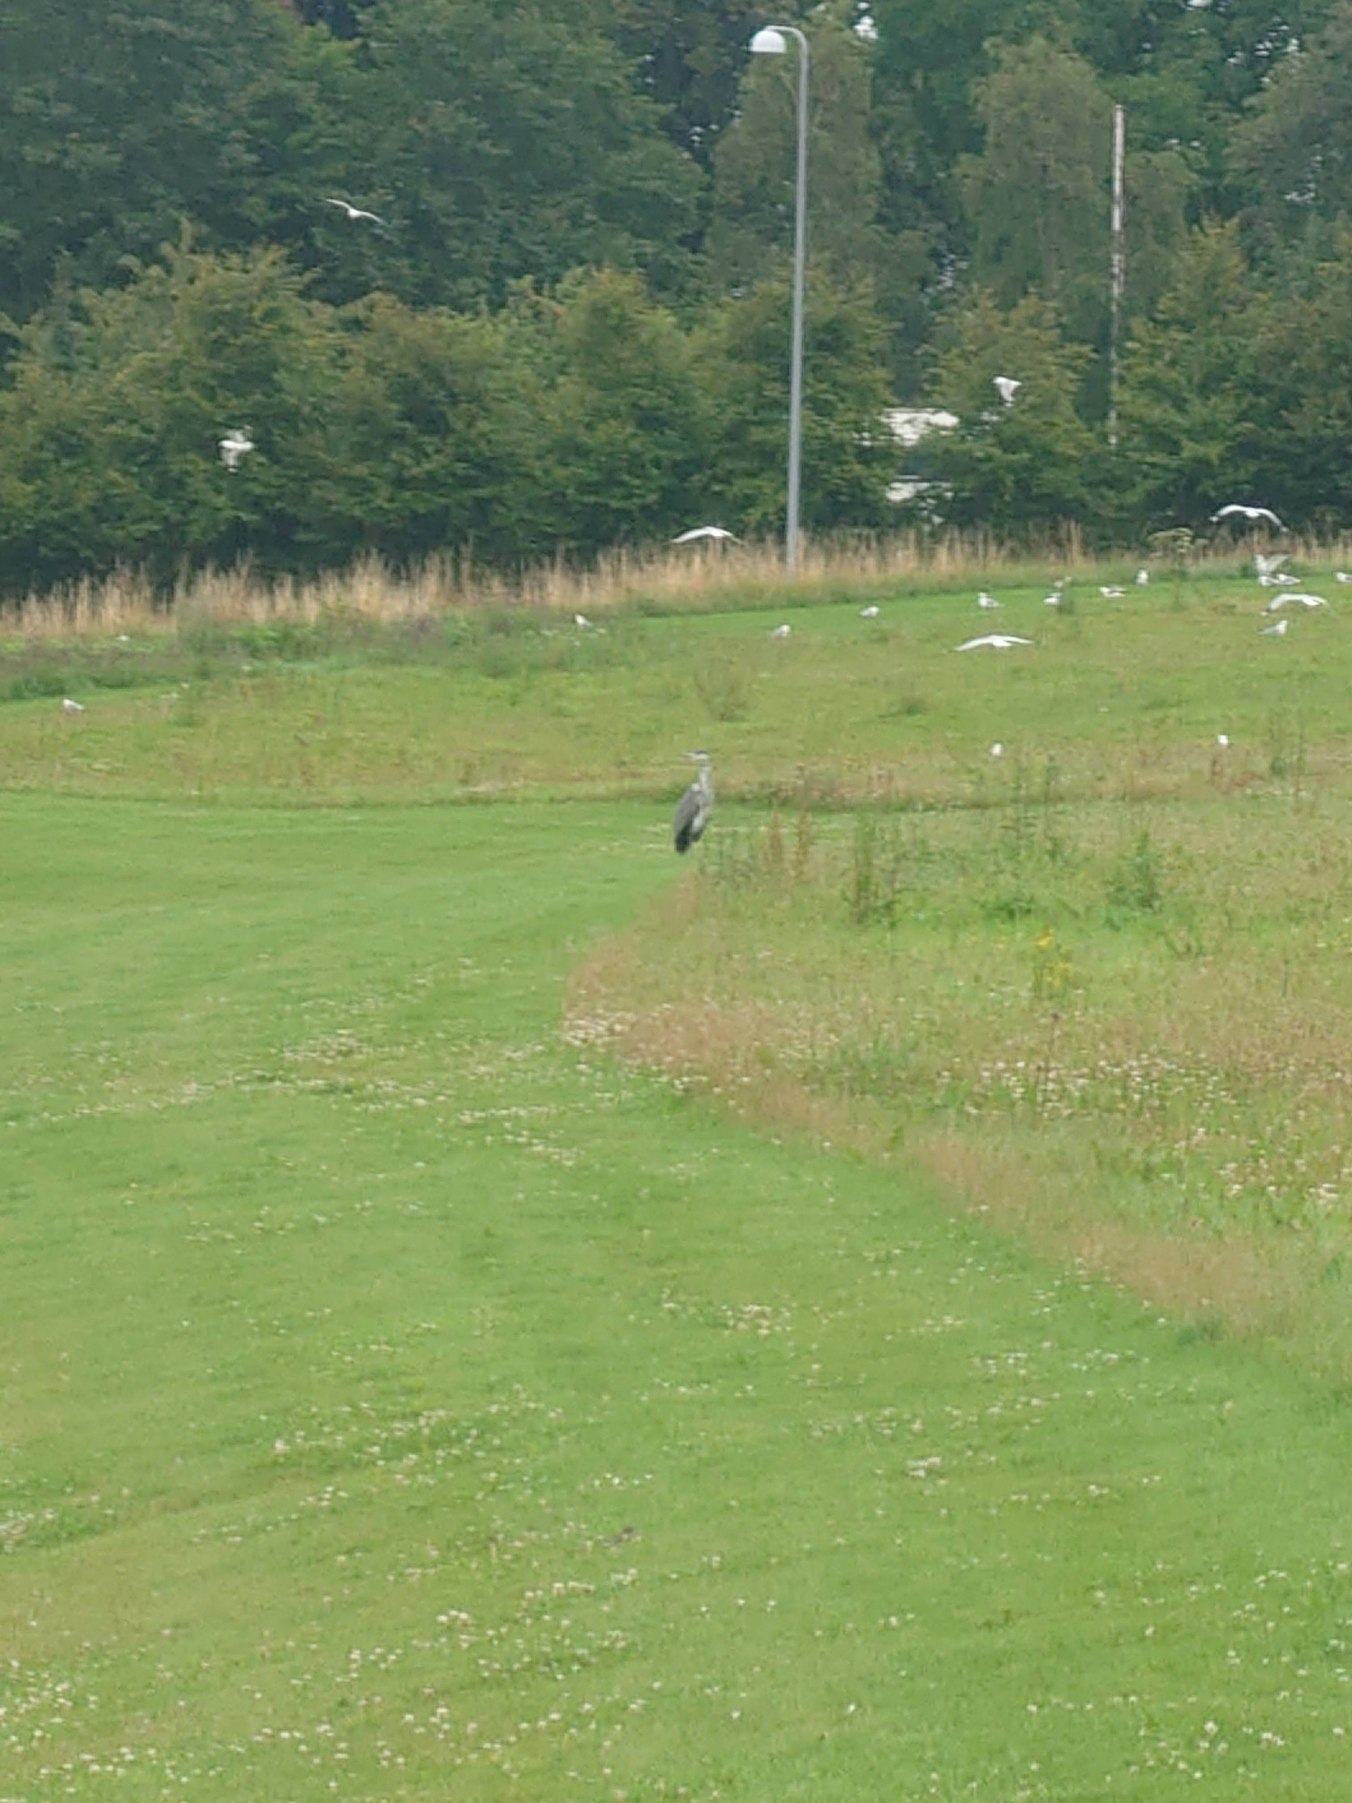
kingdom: Animalia
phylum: Chordata
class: Aves
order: Pelecaniformes
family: Ardeidae
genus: Ardea
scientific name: Ardea cinerea
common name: Fiskehejre
